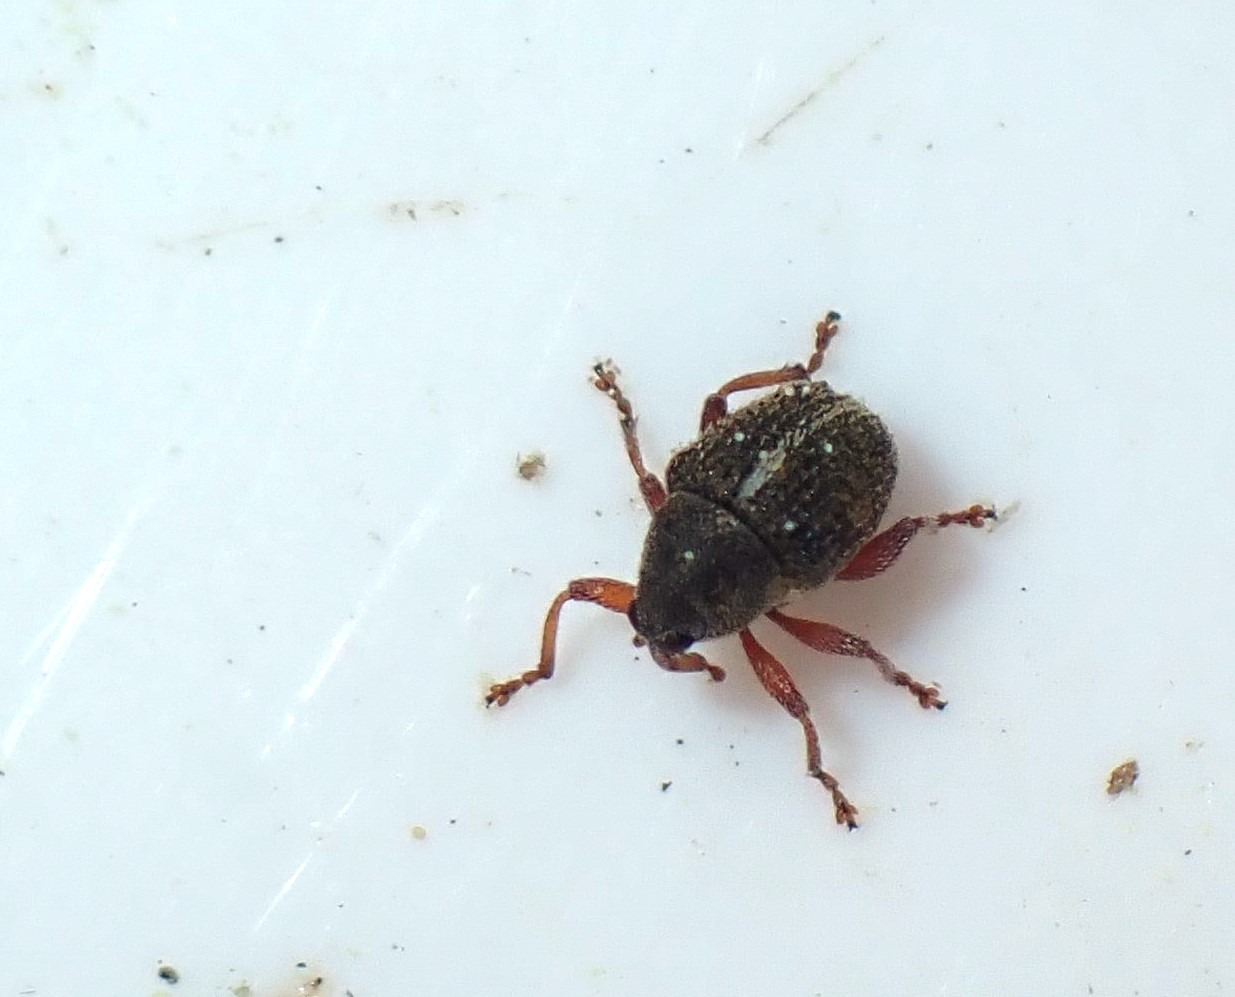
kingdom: Animalia
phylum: Arthropoda
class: Insecta
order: Coleoptera
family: Curculionidae
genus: Micrelus
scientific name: Micrelus ericae
